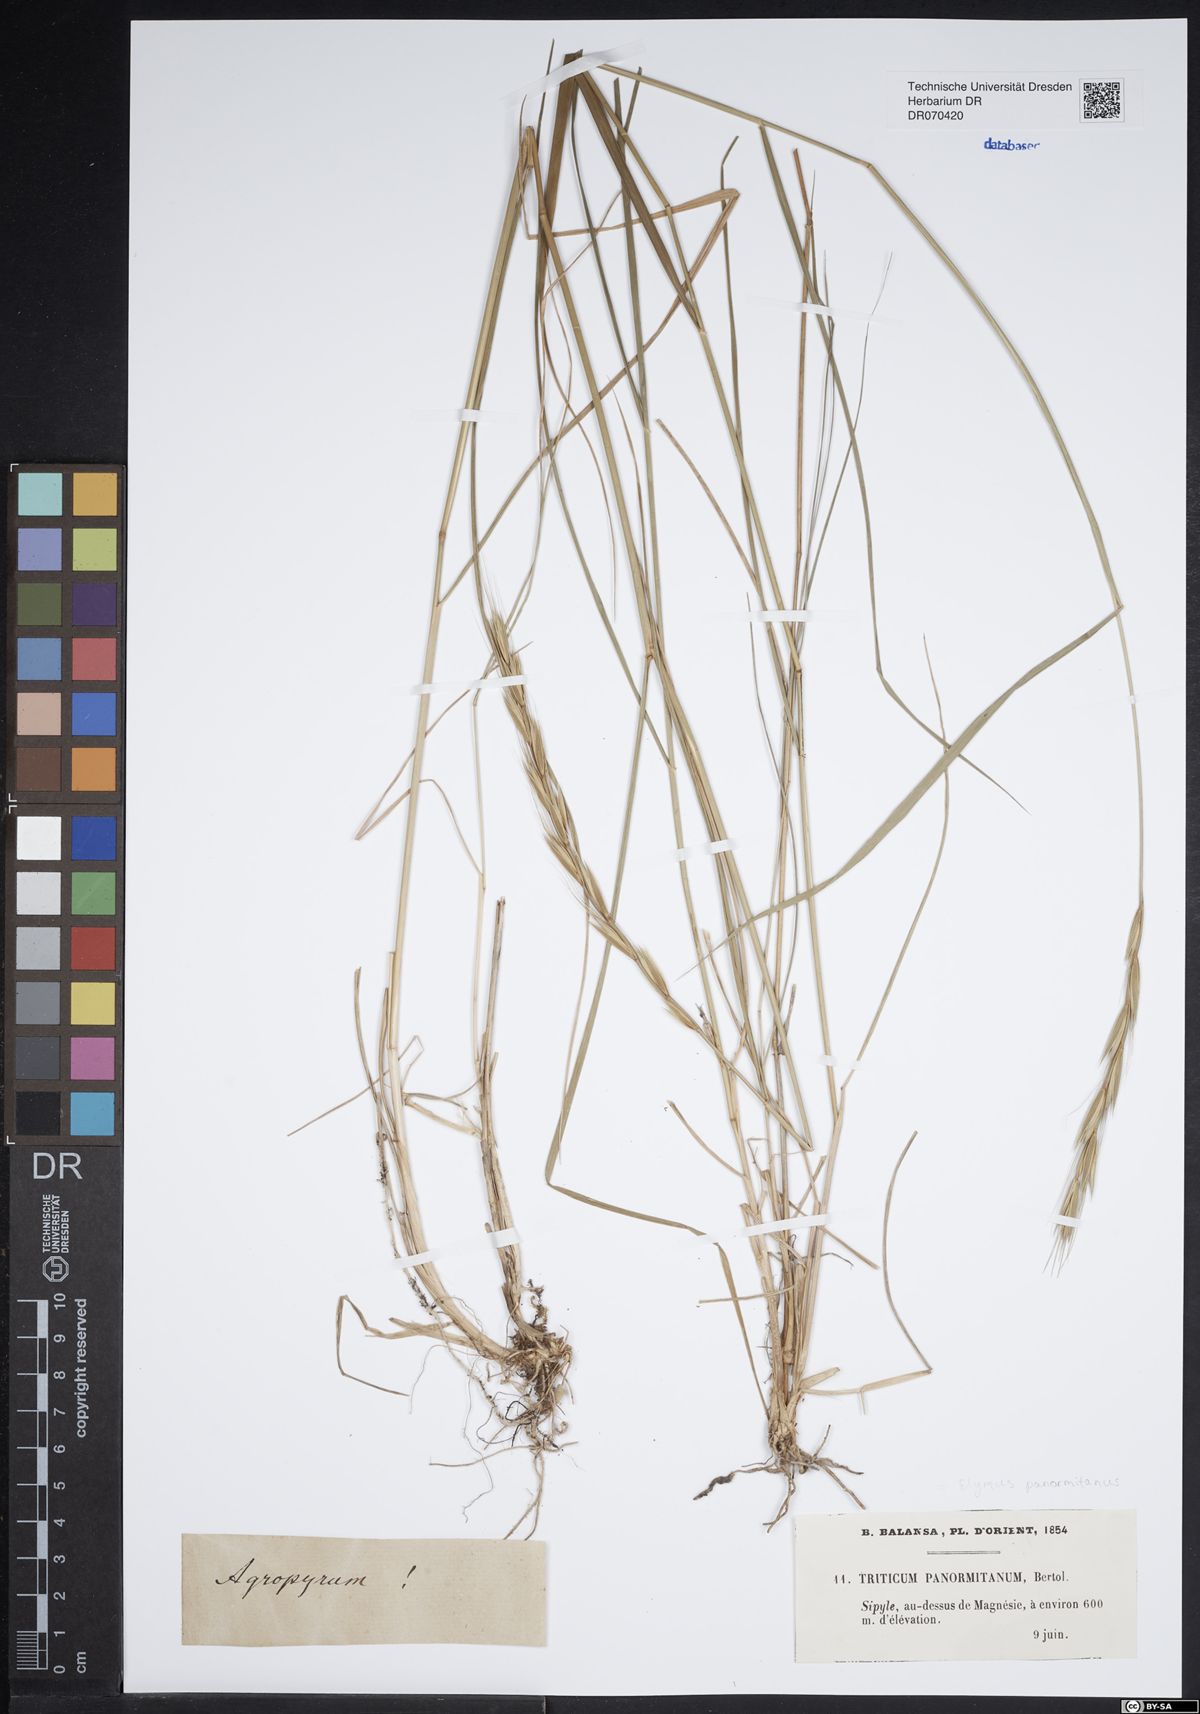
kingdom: Plantae
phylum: Tracheophyta
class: Liliopsida
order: Poales
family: Poaceae
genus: Elymus
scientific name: Elymus panormitanus
